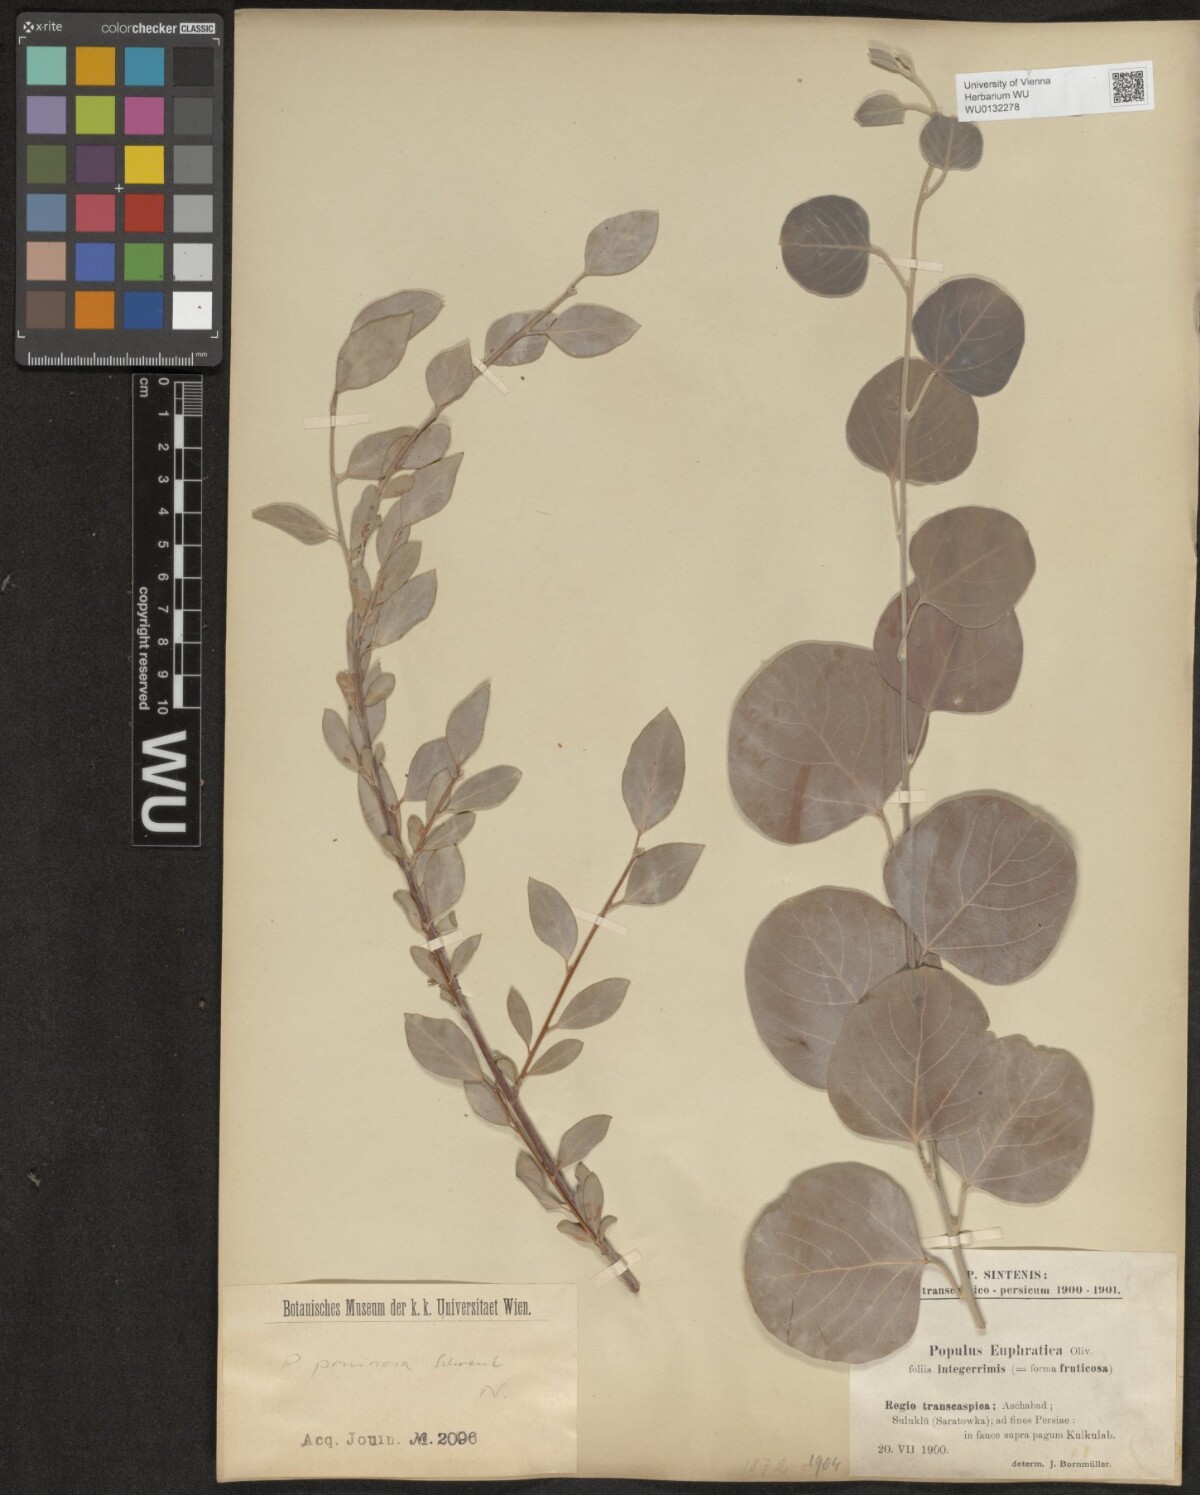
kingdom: Plantae
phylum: Tracheophyta
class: Magnoliopsida
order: Malpighiales
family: Salicaceae
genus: Populus
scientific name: Populus pruinosa
